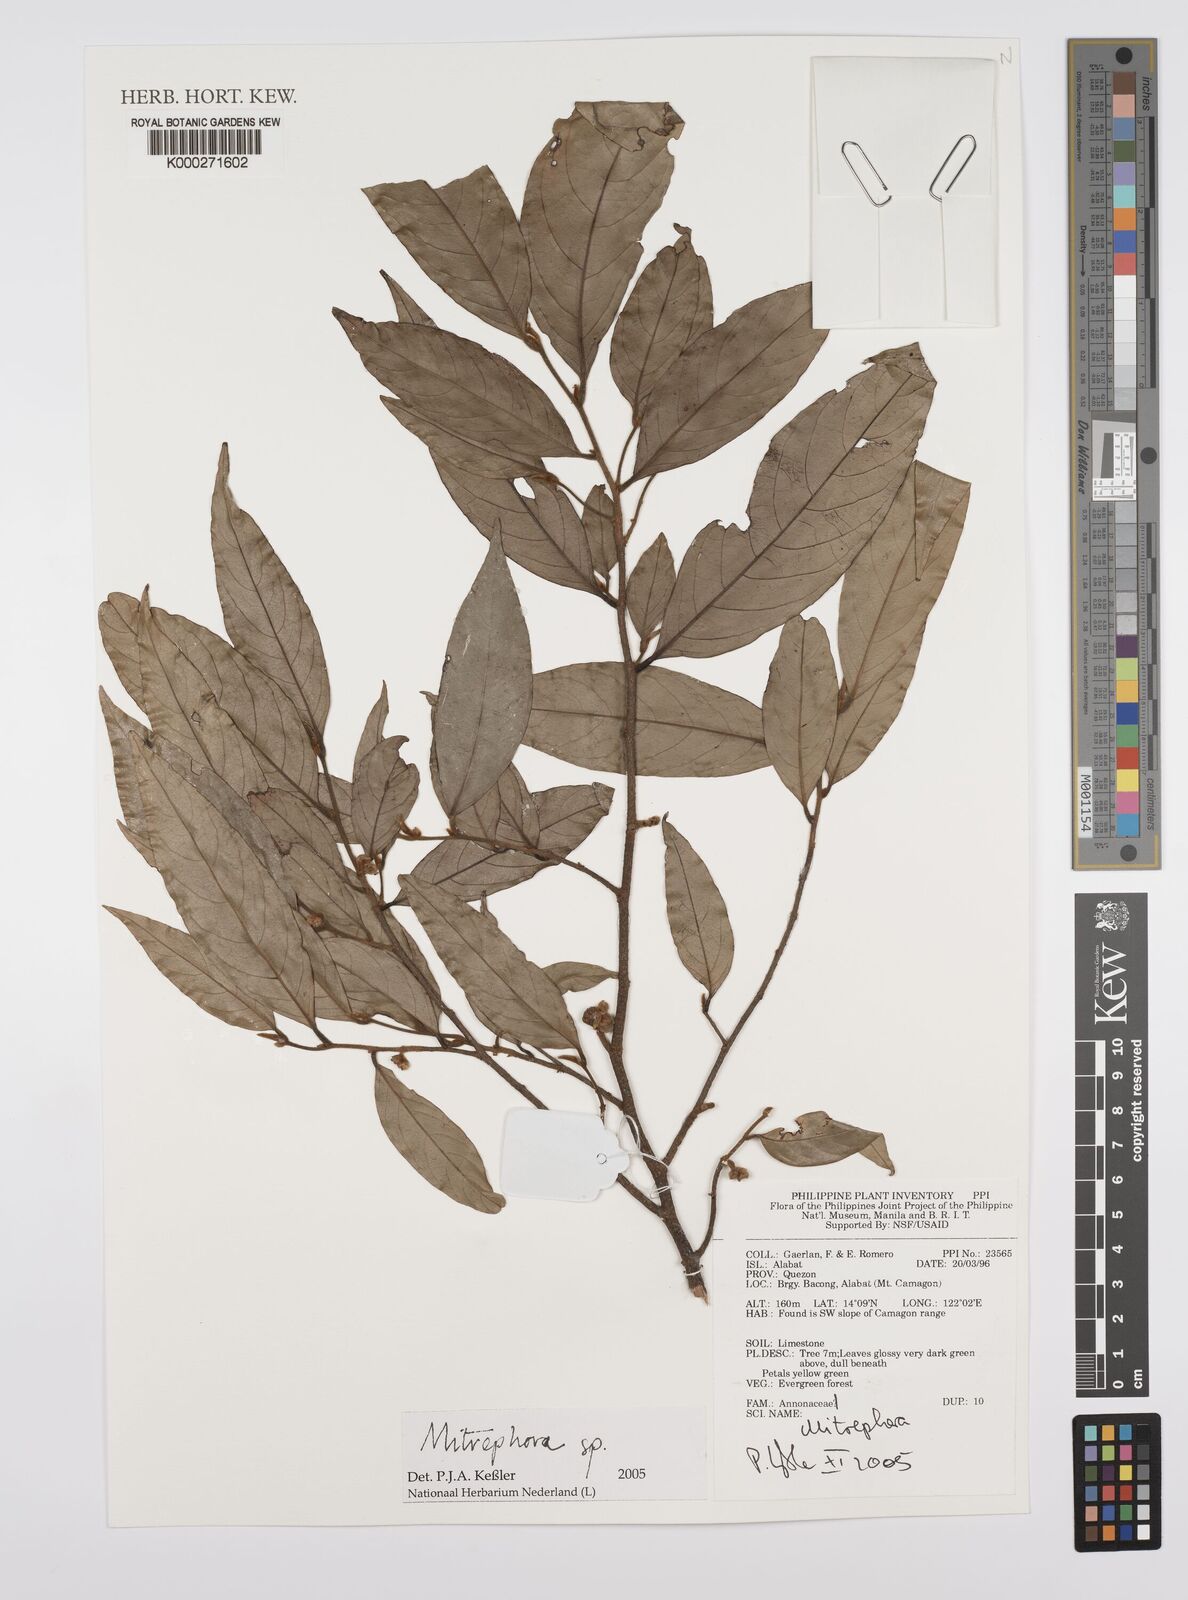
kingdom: Plantae
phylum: Tracheophyta
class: Magnoliopsida
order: Magnoliales
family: Annonaceae
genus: Mitrephora
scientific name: Mitrephora
